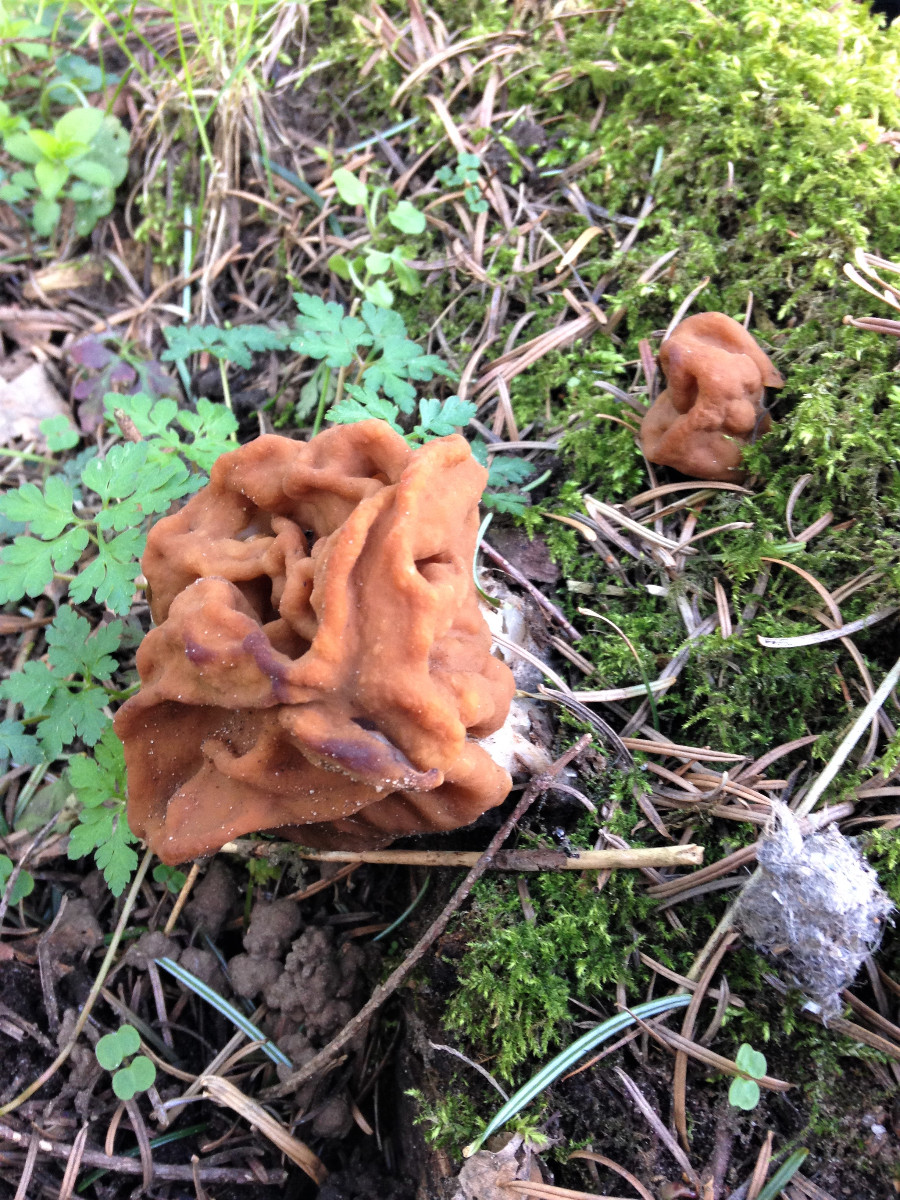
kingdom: Fungi
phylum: Ascomycota
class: Pezizomycetes
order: Pezizales
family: Discinaceae
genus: Gyromitra
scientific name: Gyromitra gigas
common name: kæmpe-stenmorkel
